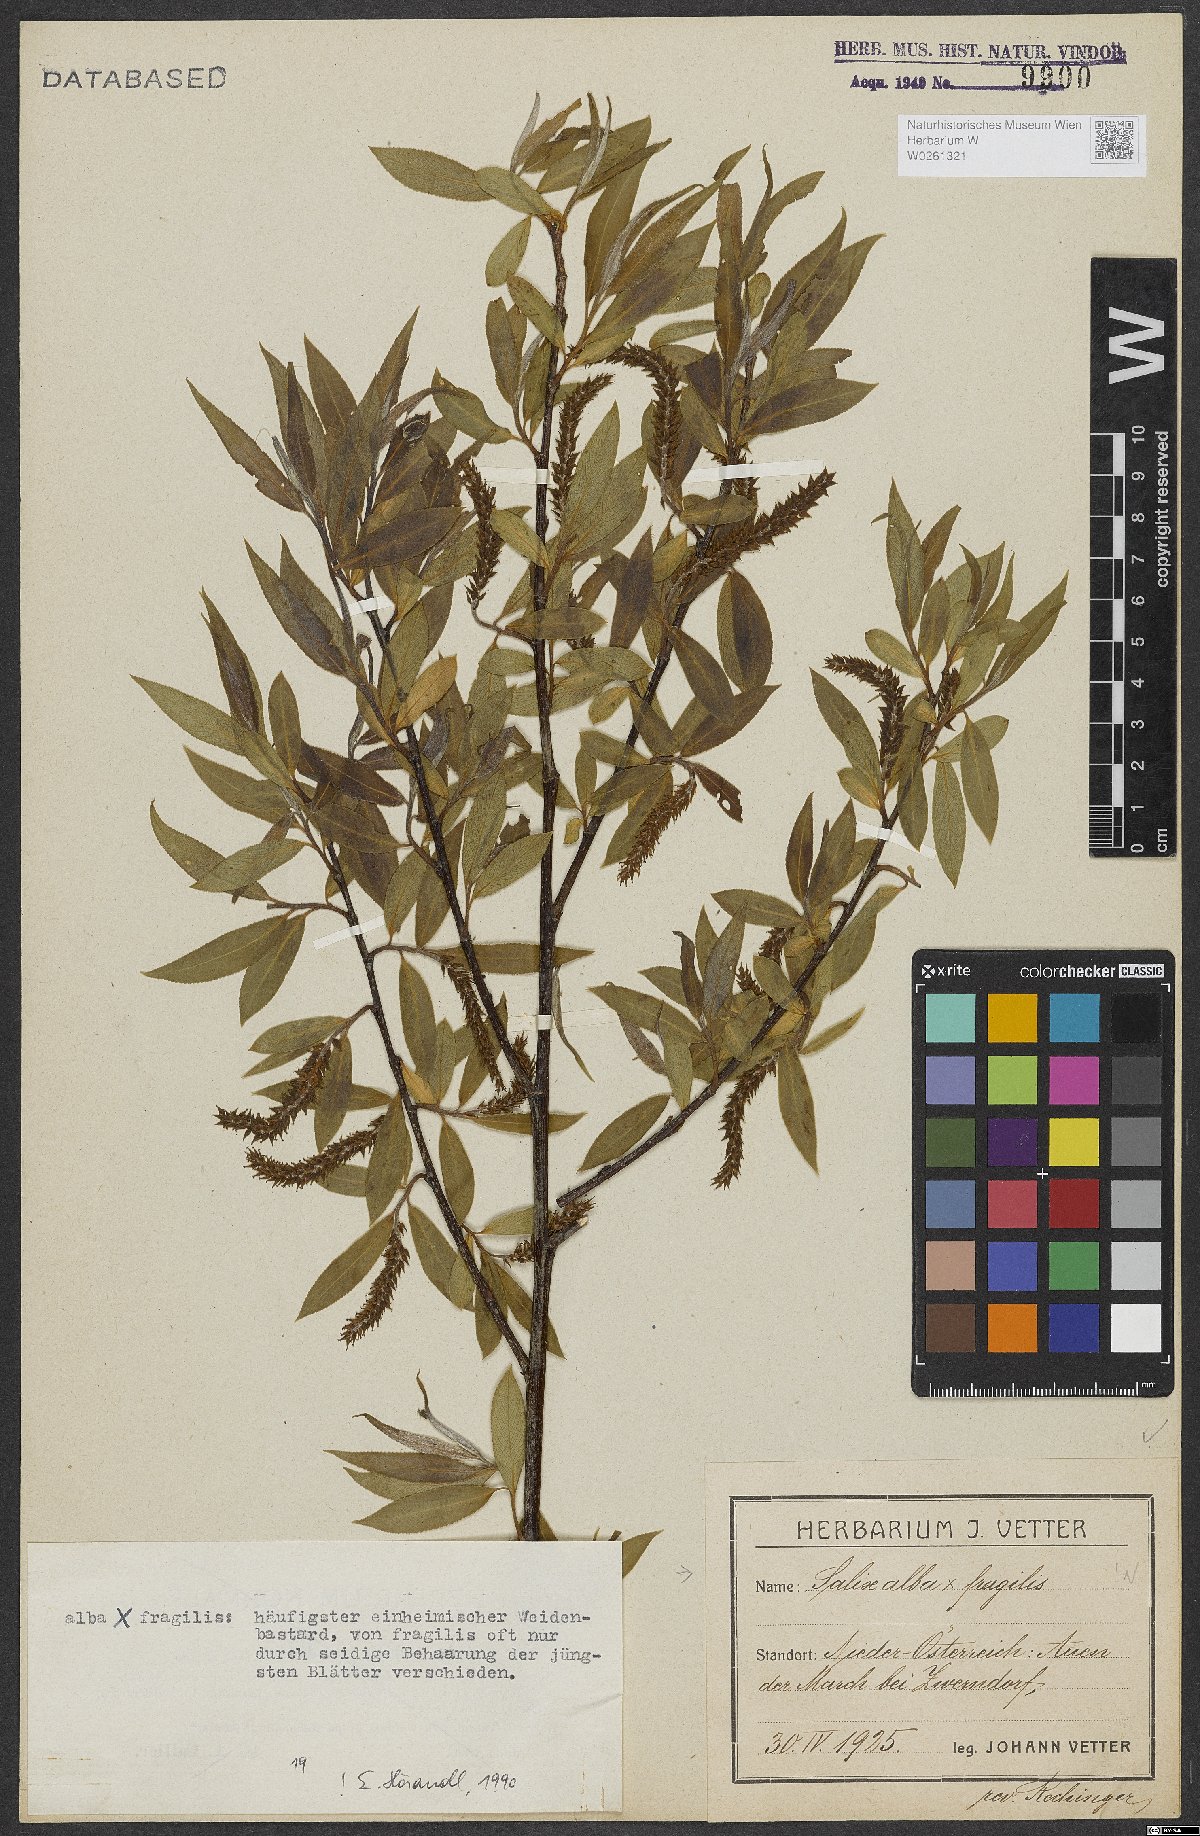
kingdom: Plantae
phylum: Tracheophyta
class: Magnoliopsida
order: Malpighiales
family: Salicaceae
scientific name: Salicaceae
